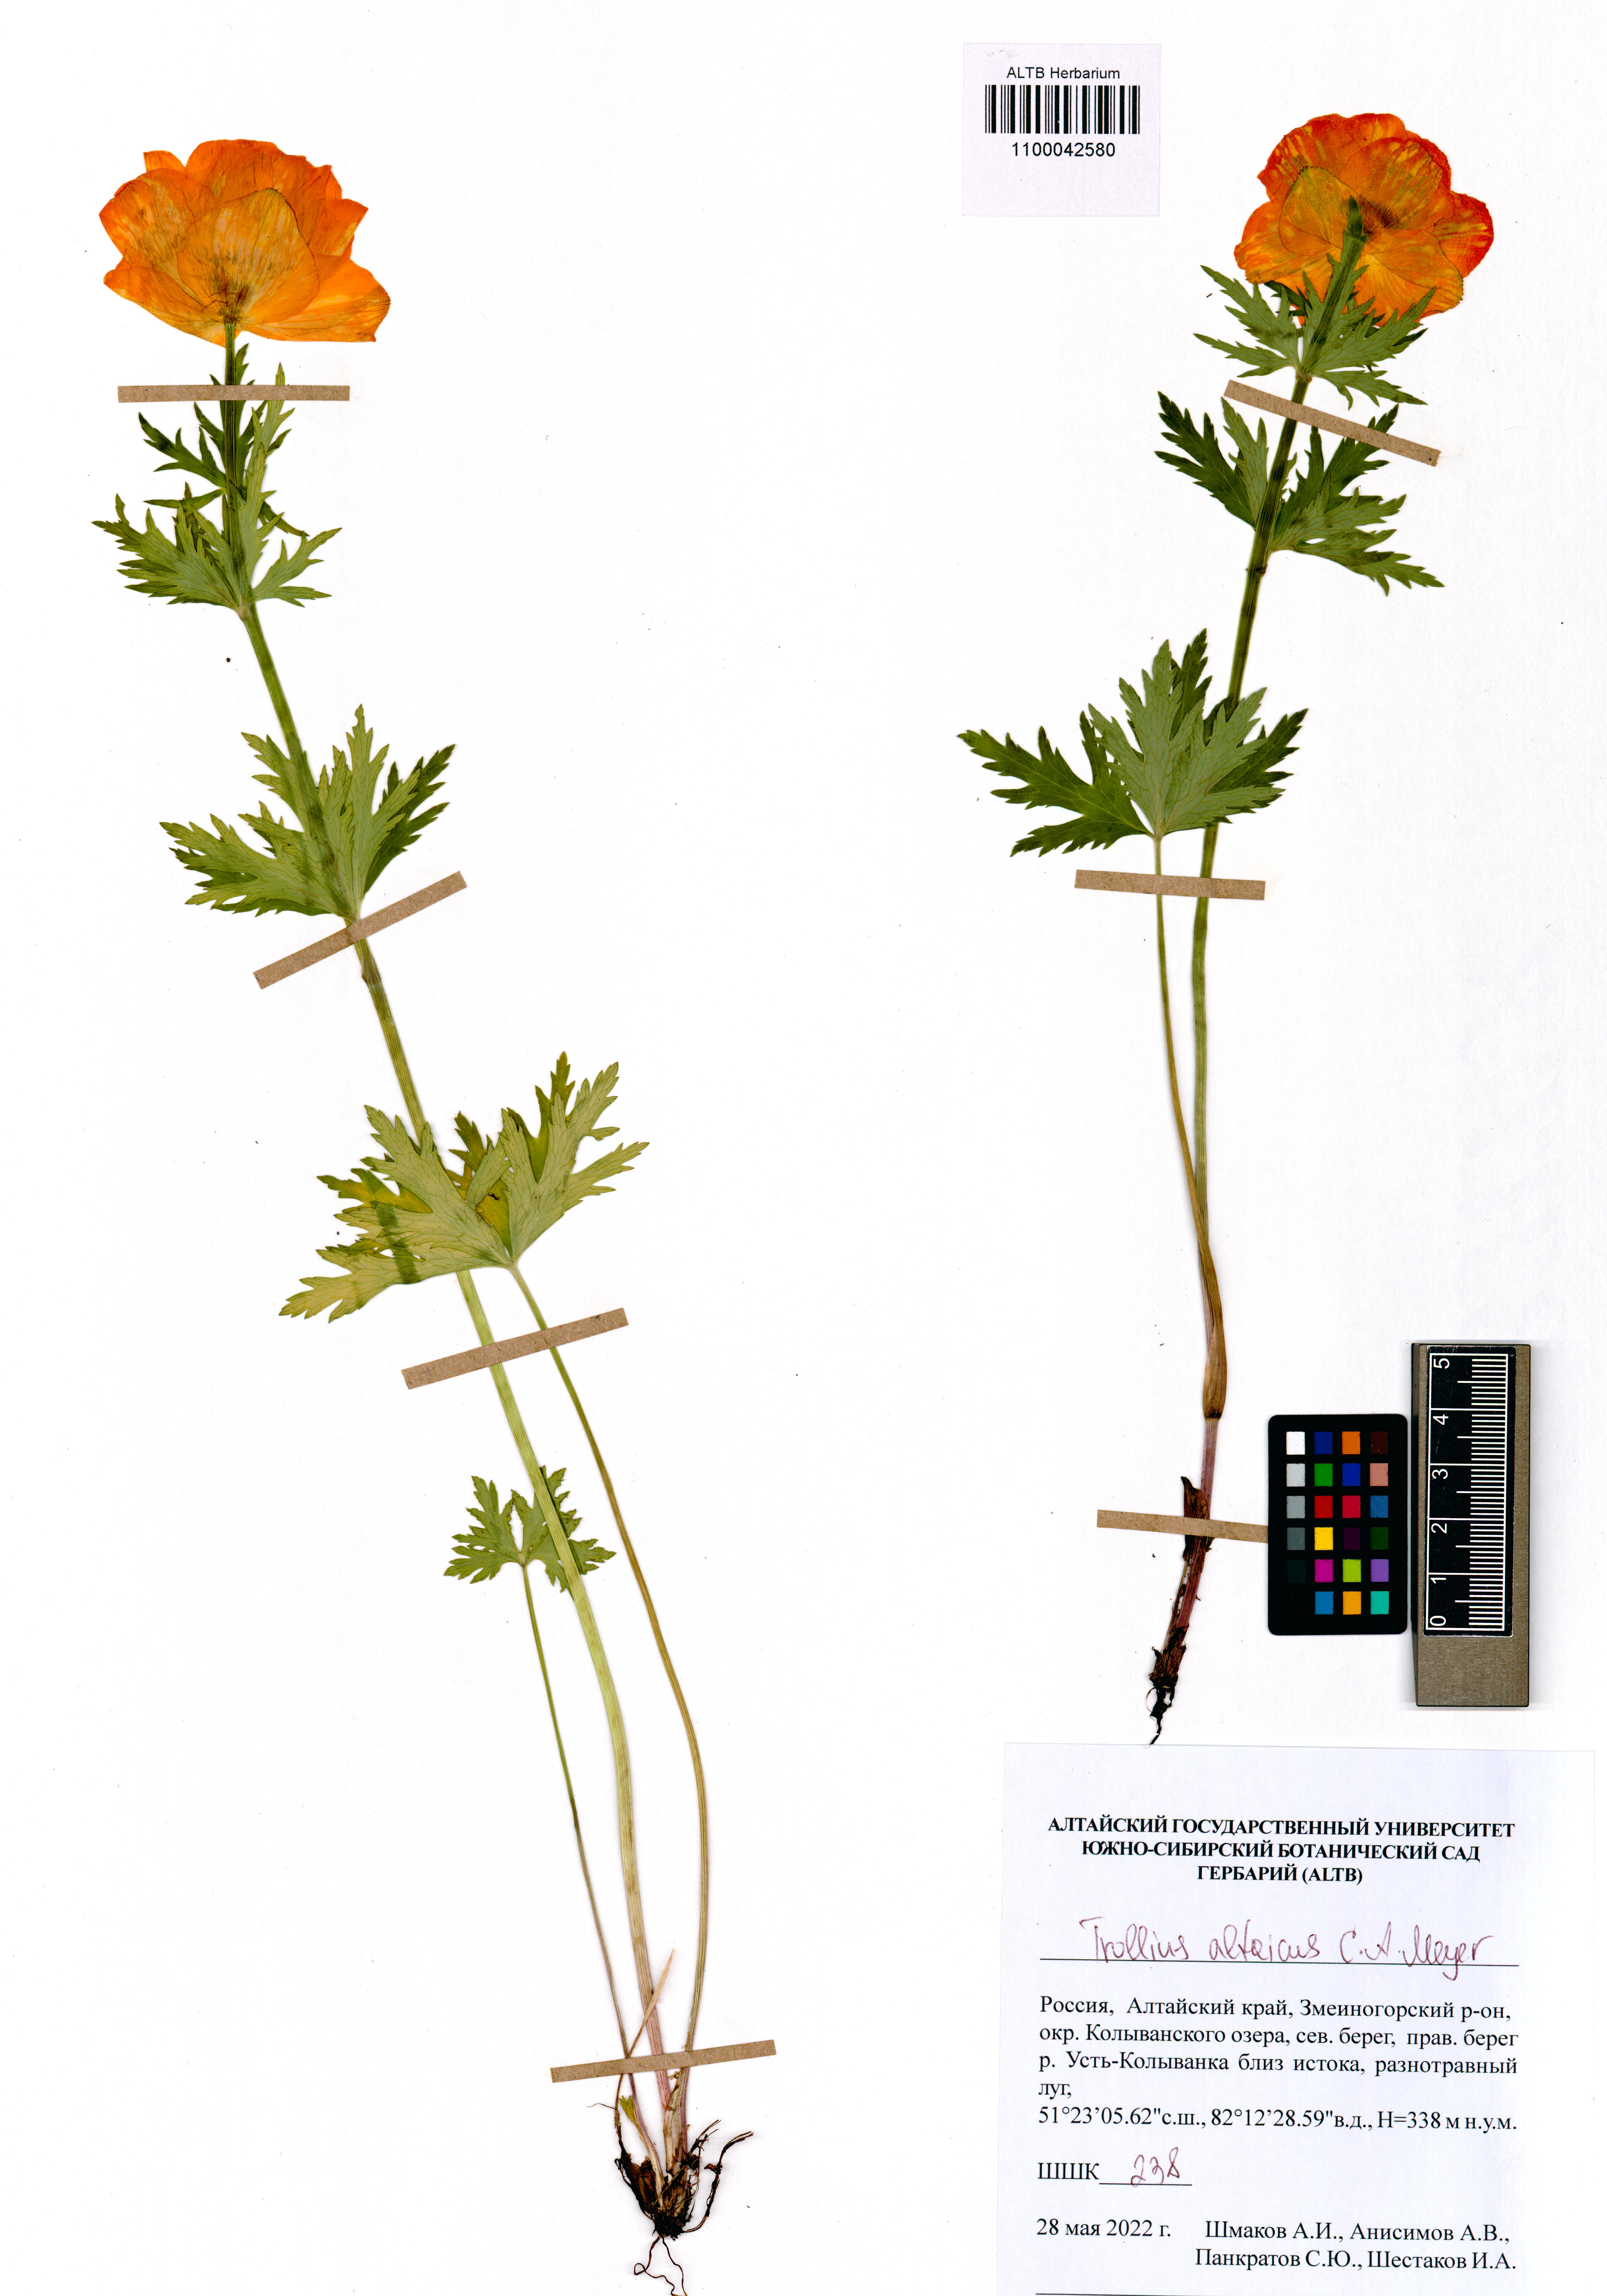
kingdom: Plantae
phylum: Tracheophyta
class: Magnoliopsida
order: Ranunculales
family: Ranunculaceae
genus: Trollius
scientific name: Trollius altaicus
